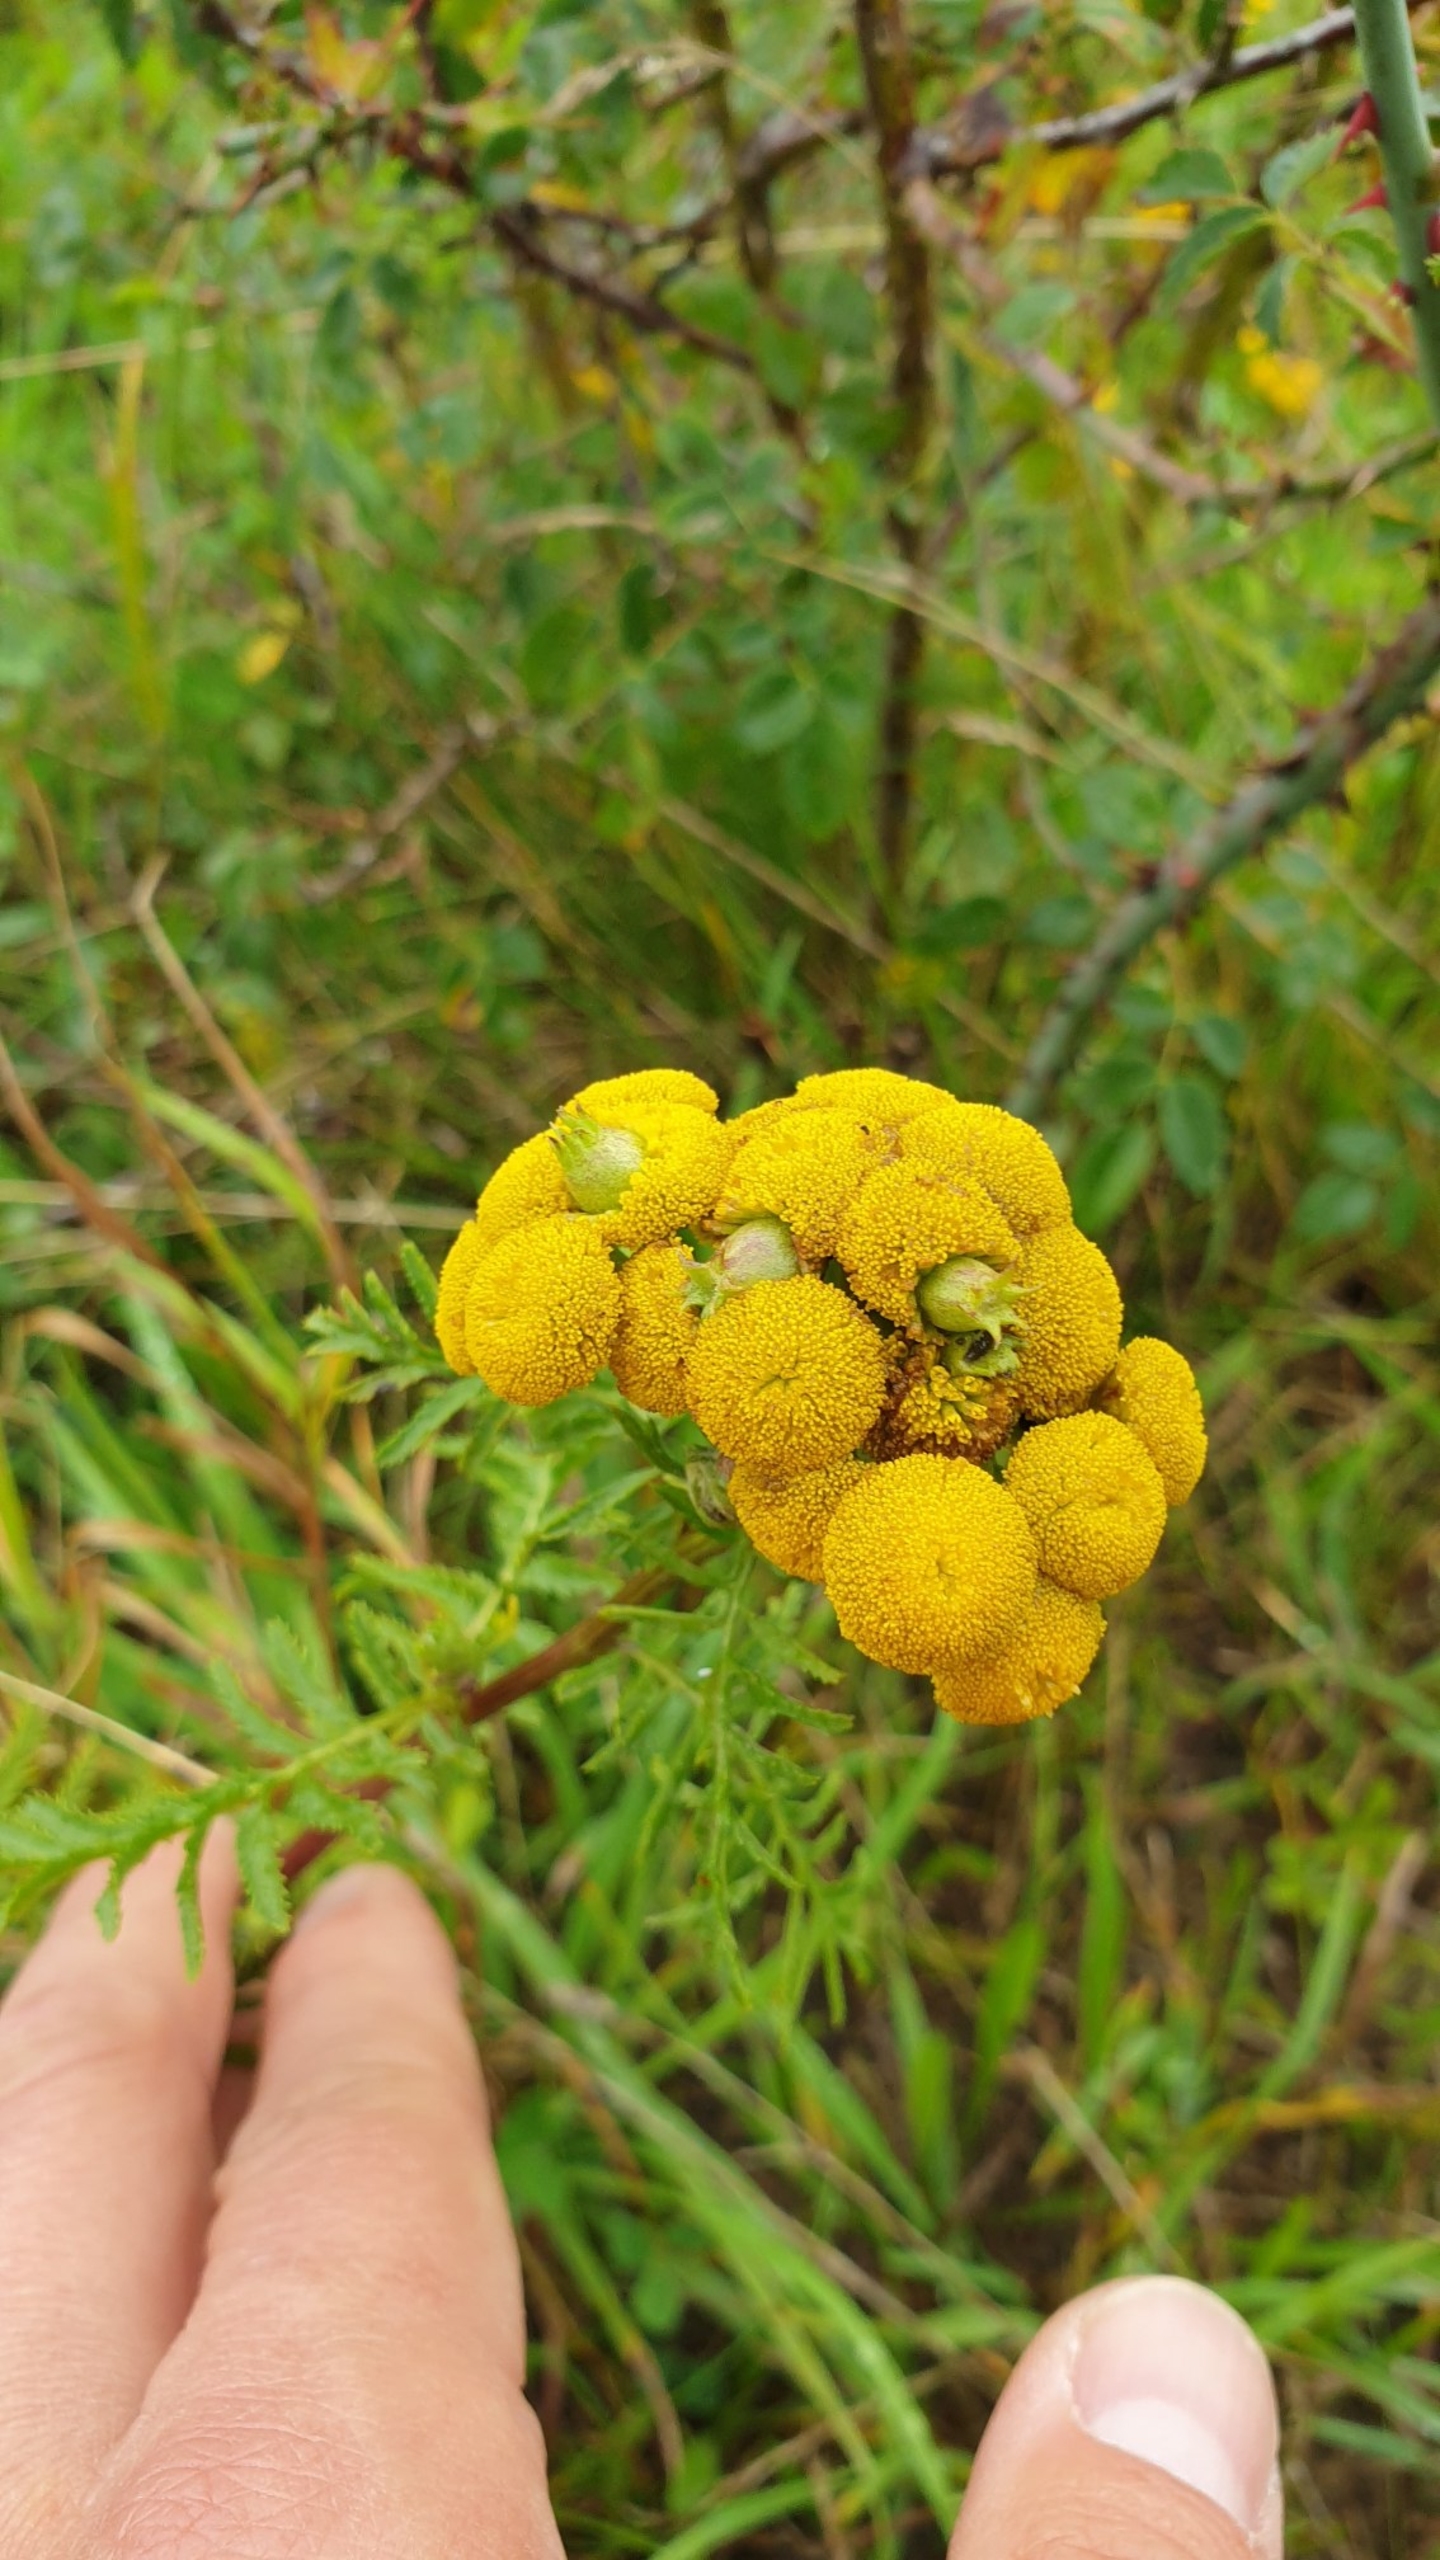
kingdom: Animalia
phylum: Arthropoda
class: Insecta
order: Diptera
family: Cecidomyiidae
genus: Rhopalomyia
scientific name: Rhopalomyia tanaceticolus
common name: Rejnfangalmyg
